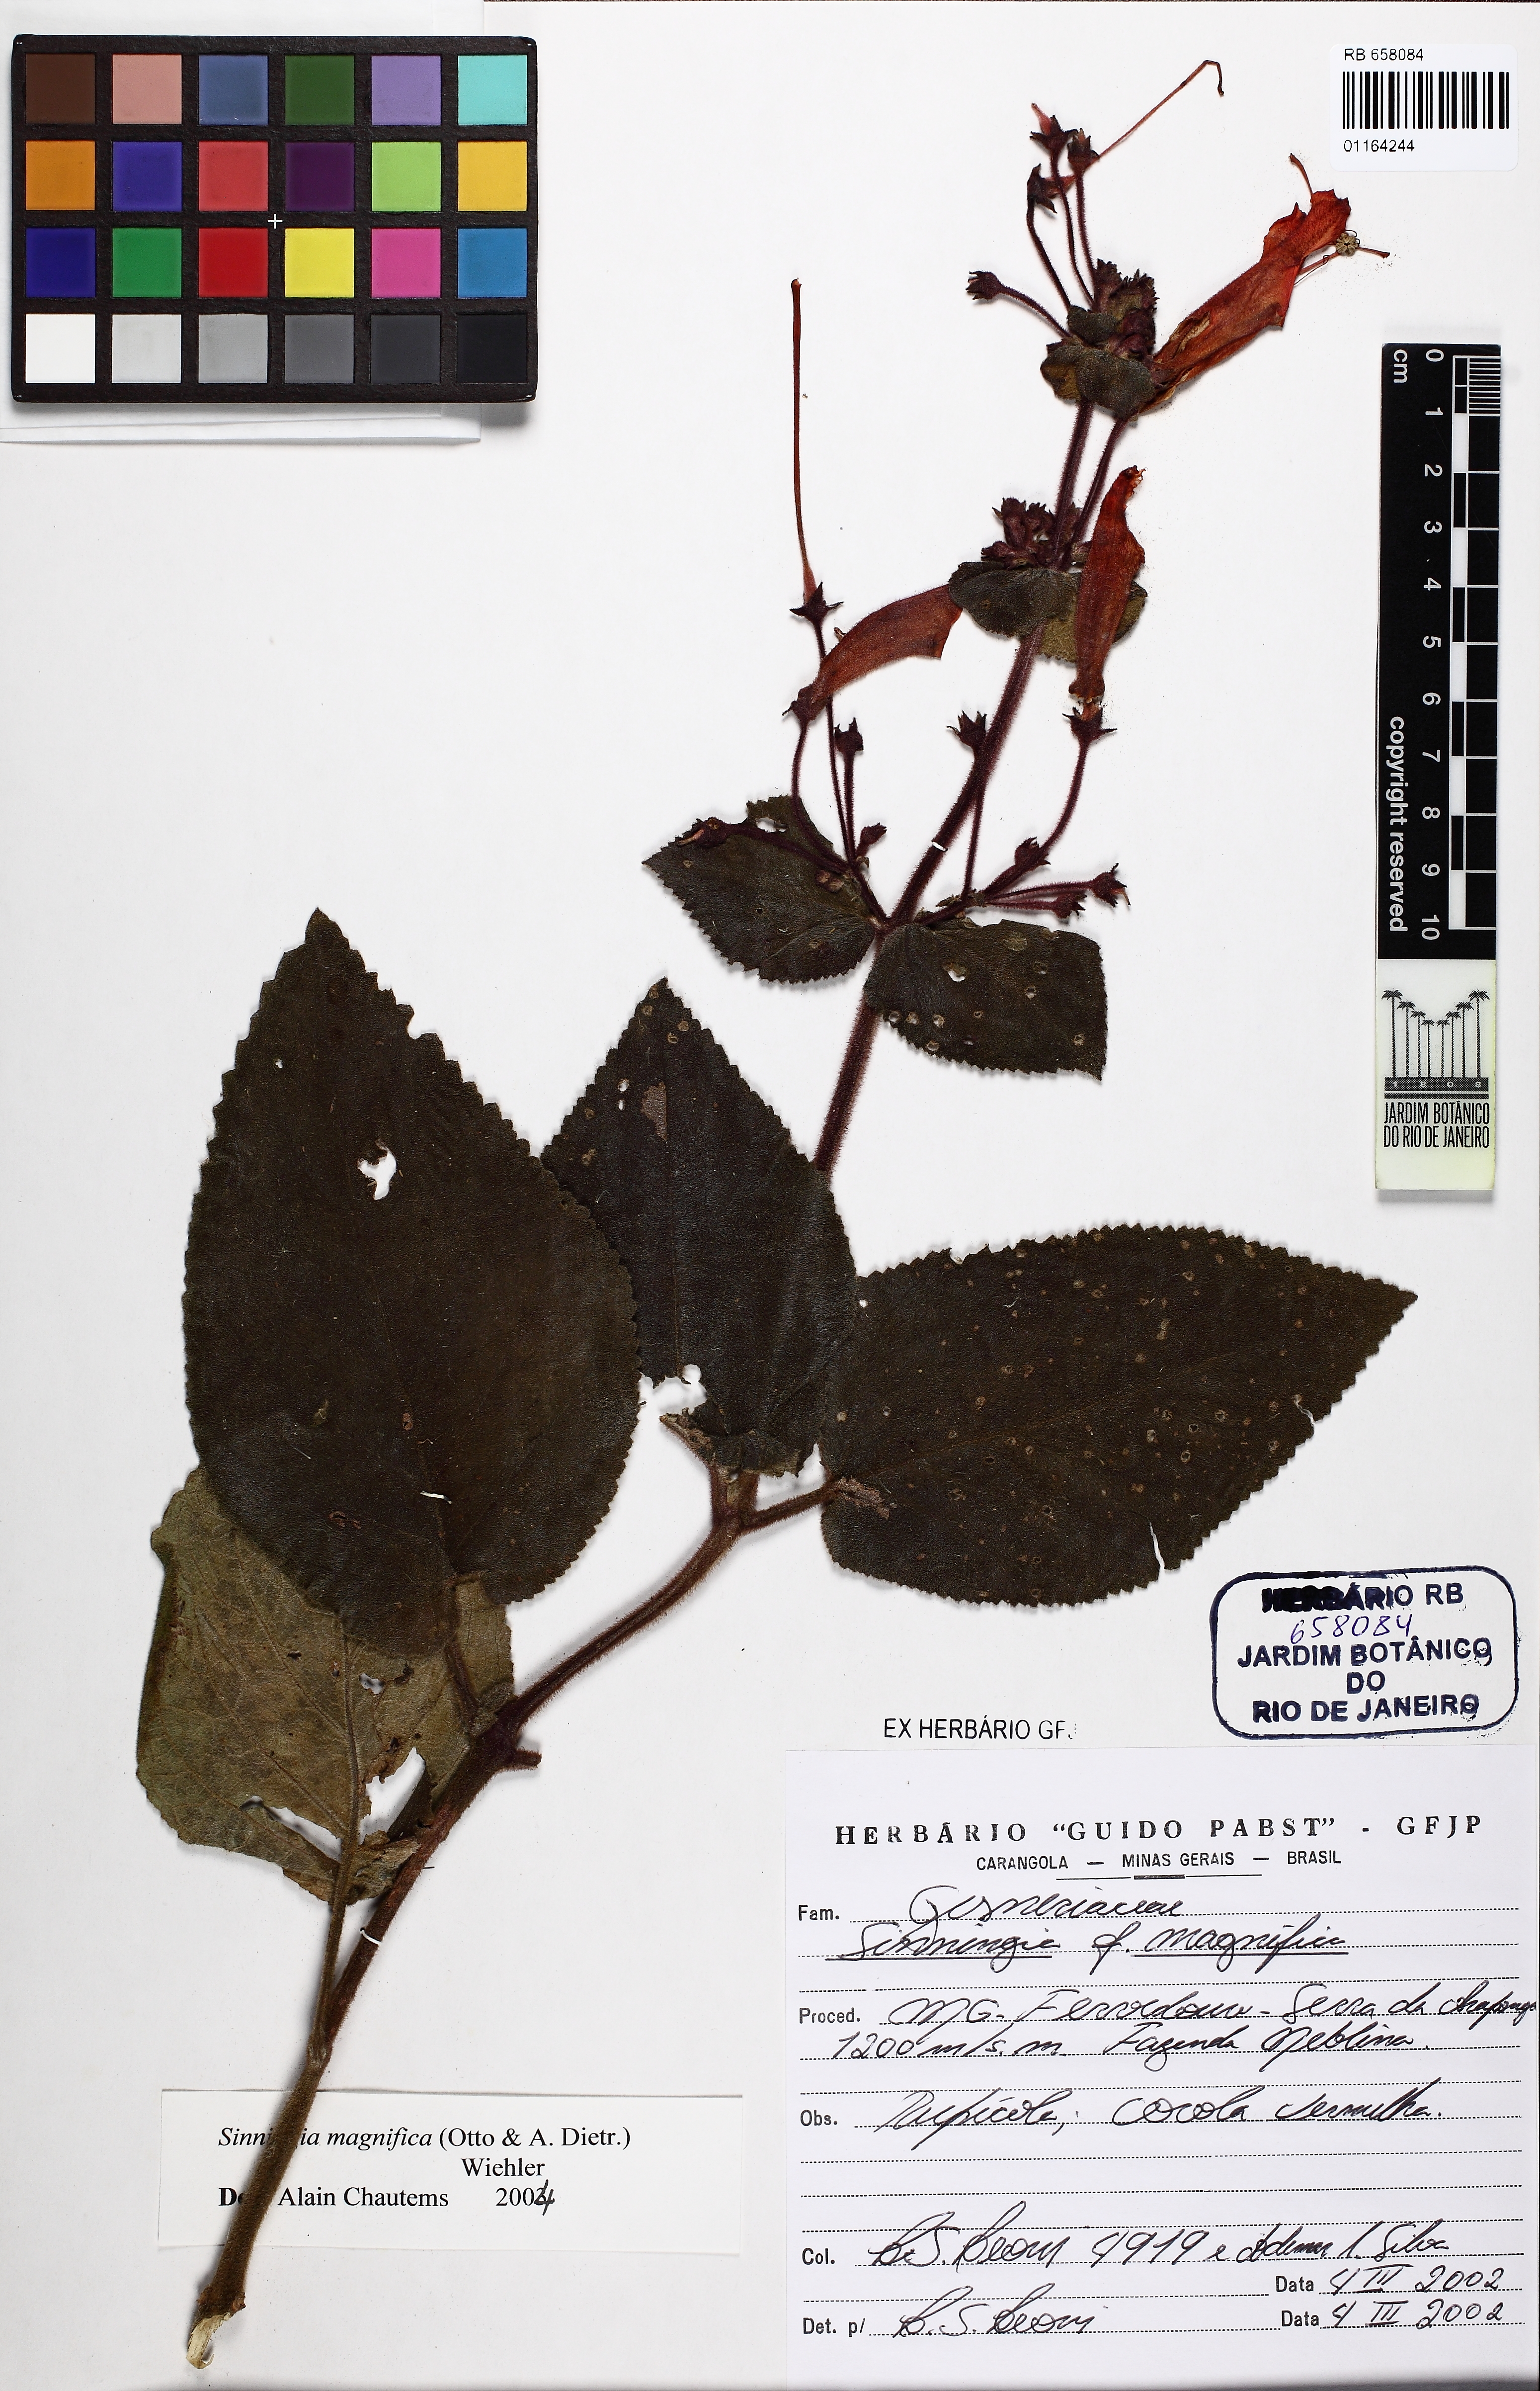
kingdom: Plantae
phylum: Tracheophyta
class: Magnoliopsida
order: Lamiales
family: Gesneriaceae
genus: Sinningia
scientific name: Sinningia magnifica
